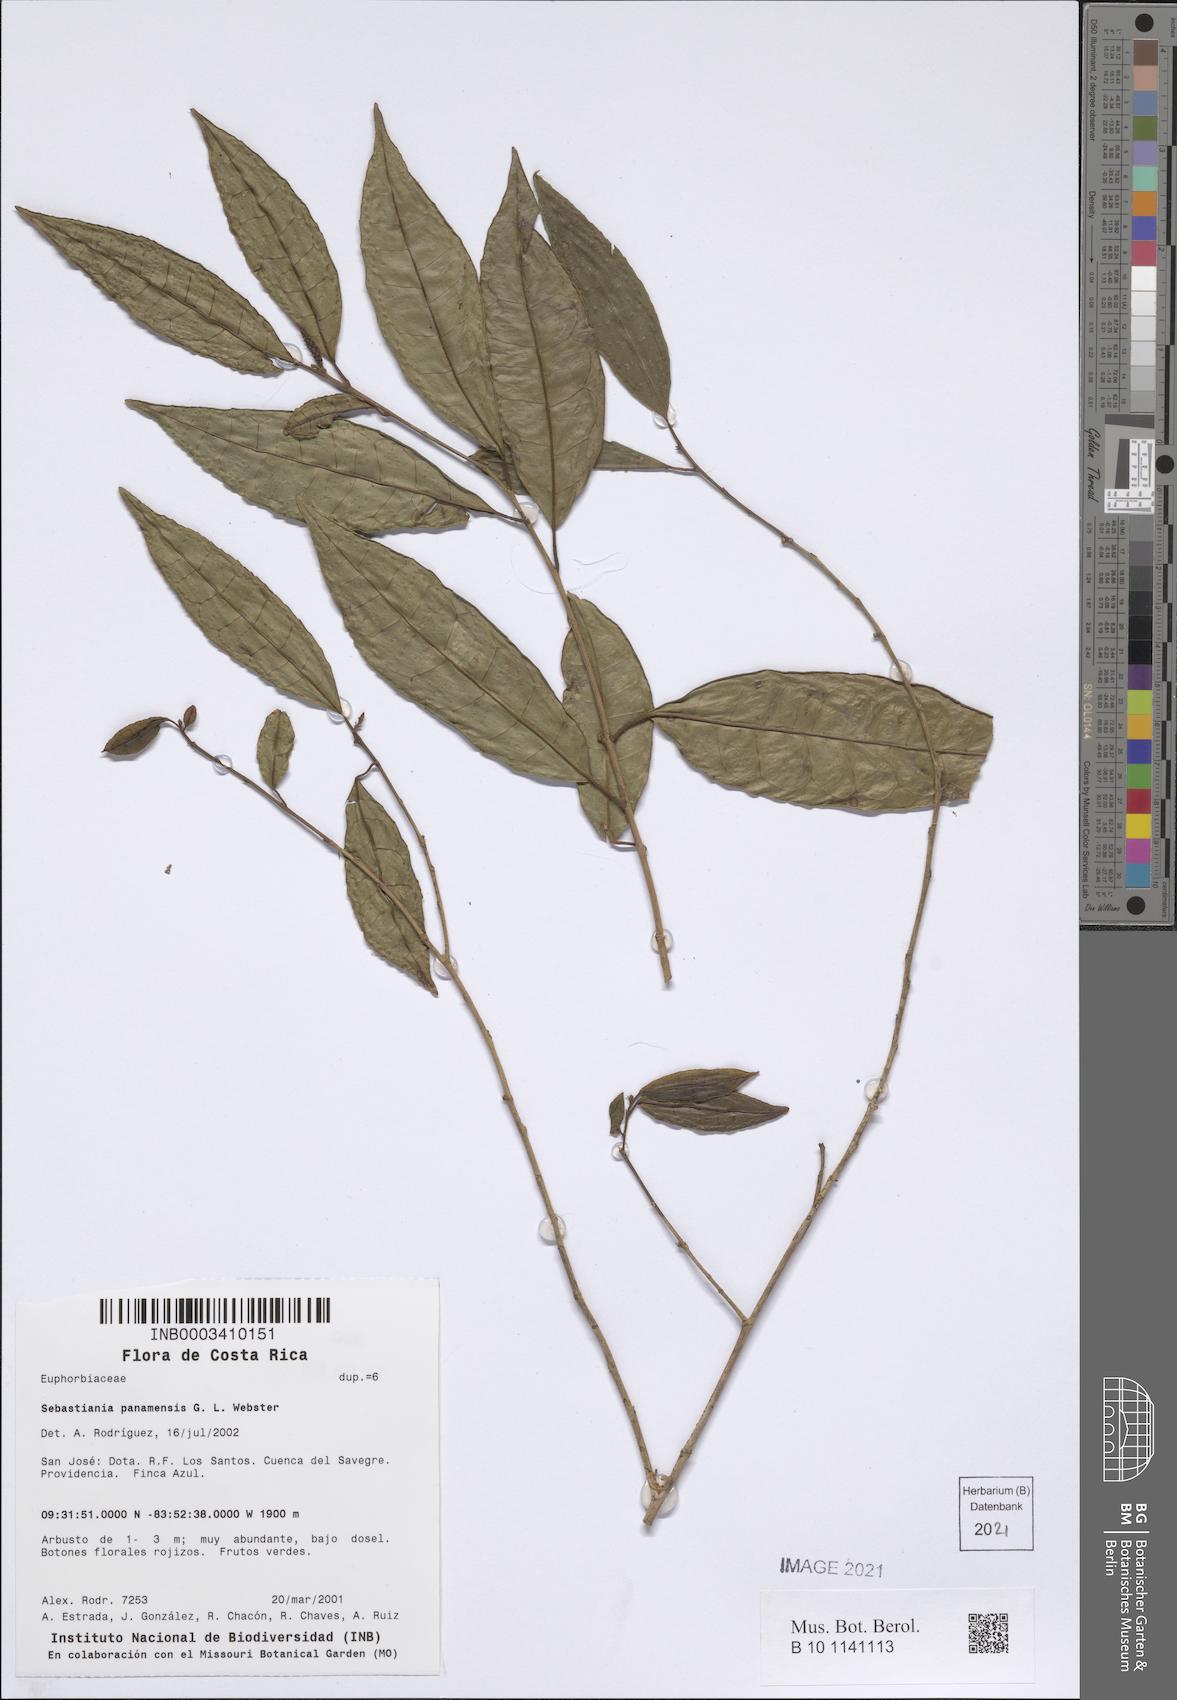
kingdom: Plantae
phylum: Tracheophyta
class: Magnoliopsida
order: Malpighiales
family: Euphorbiaceae
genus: Sebastiania
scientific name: Sebastiania panamensis
